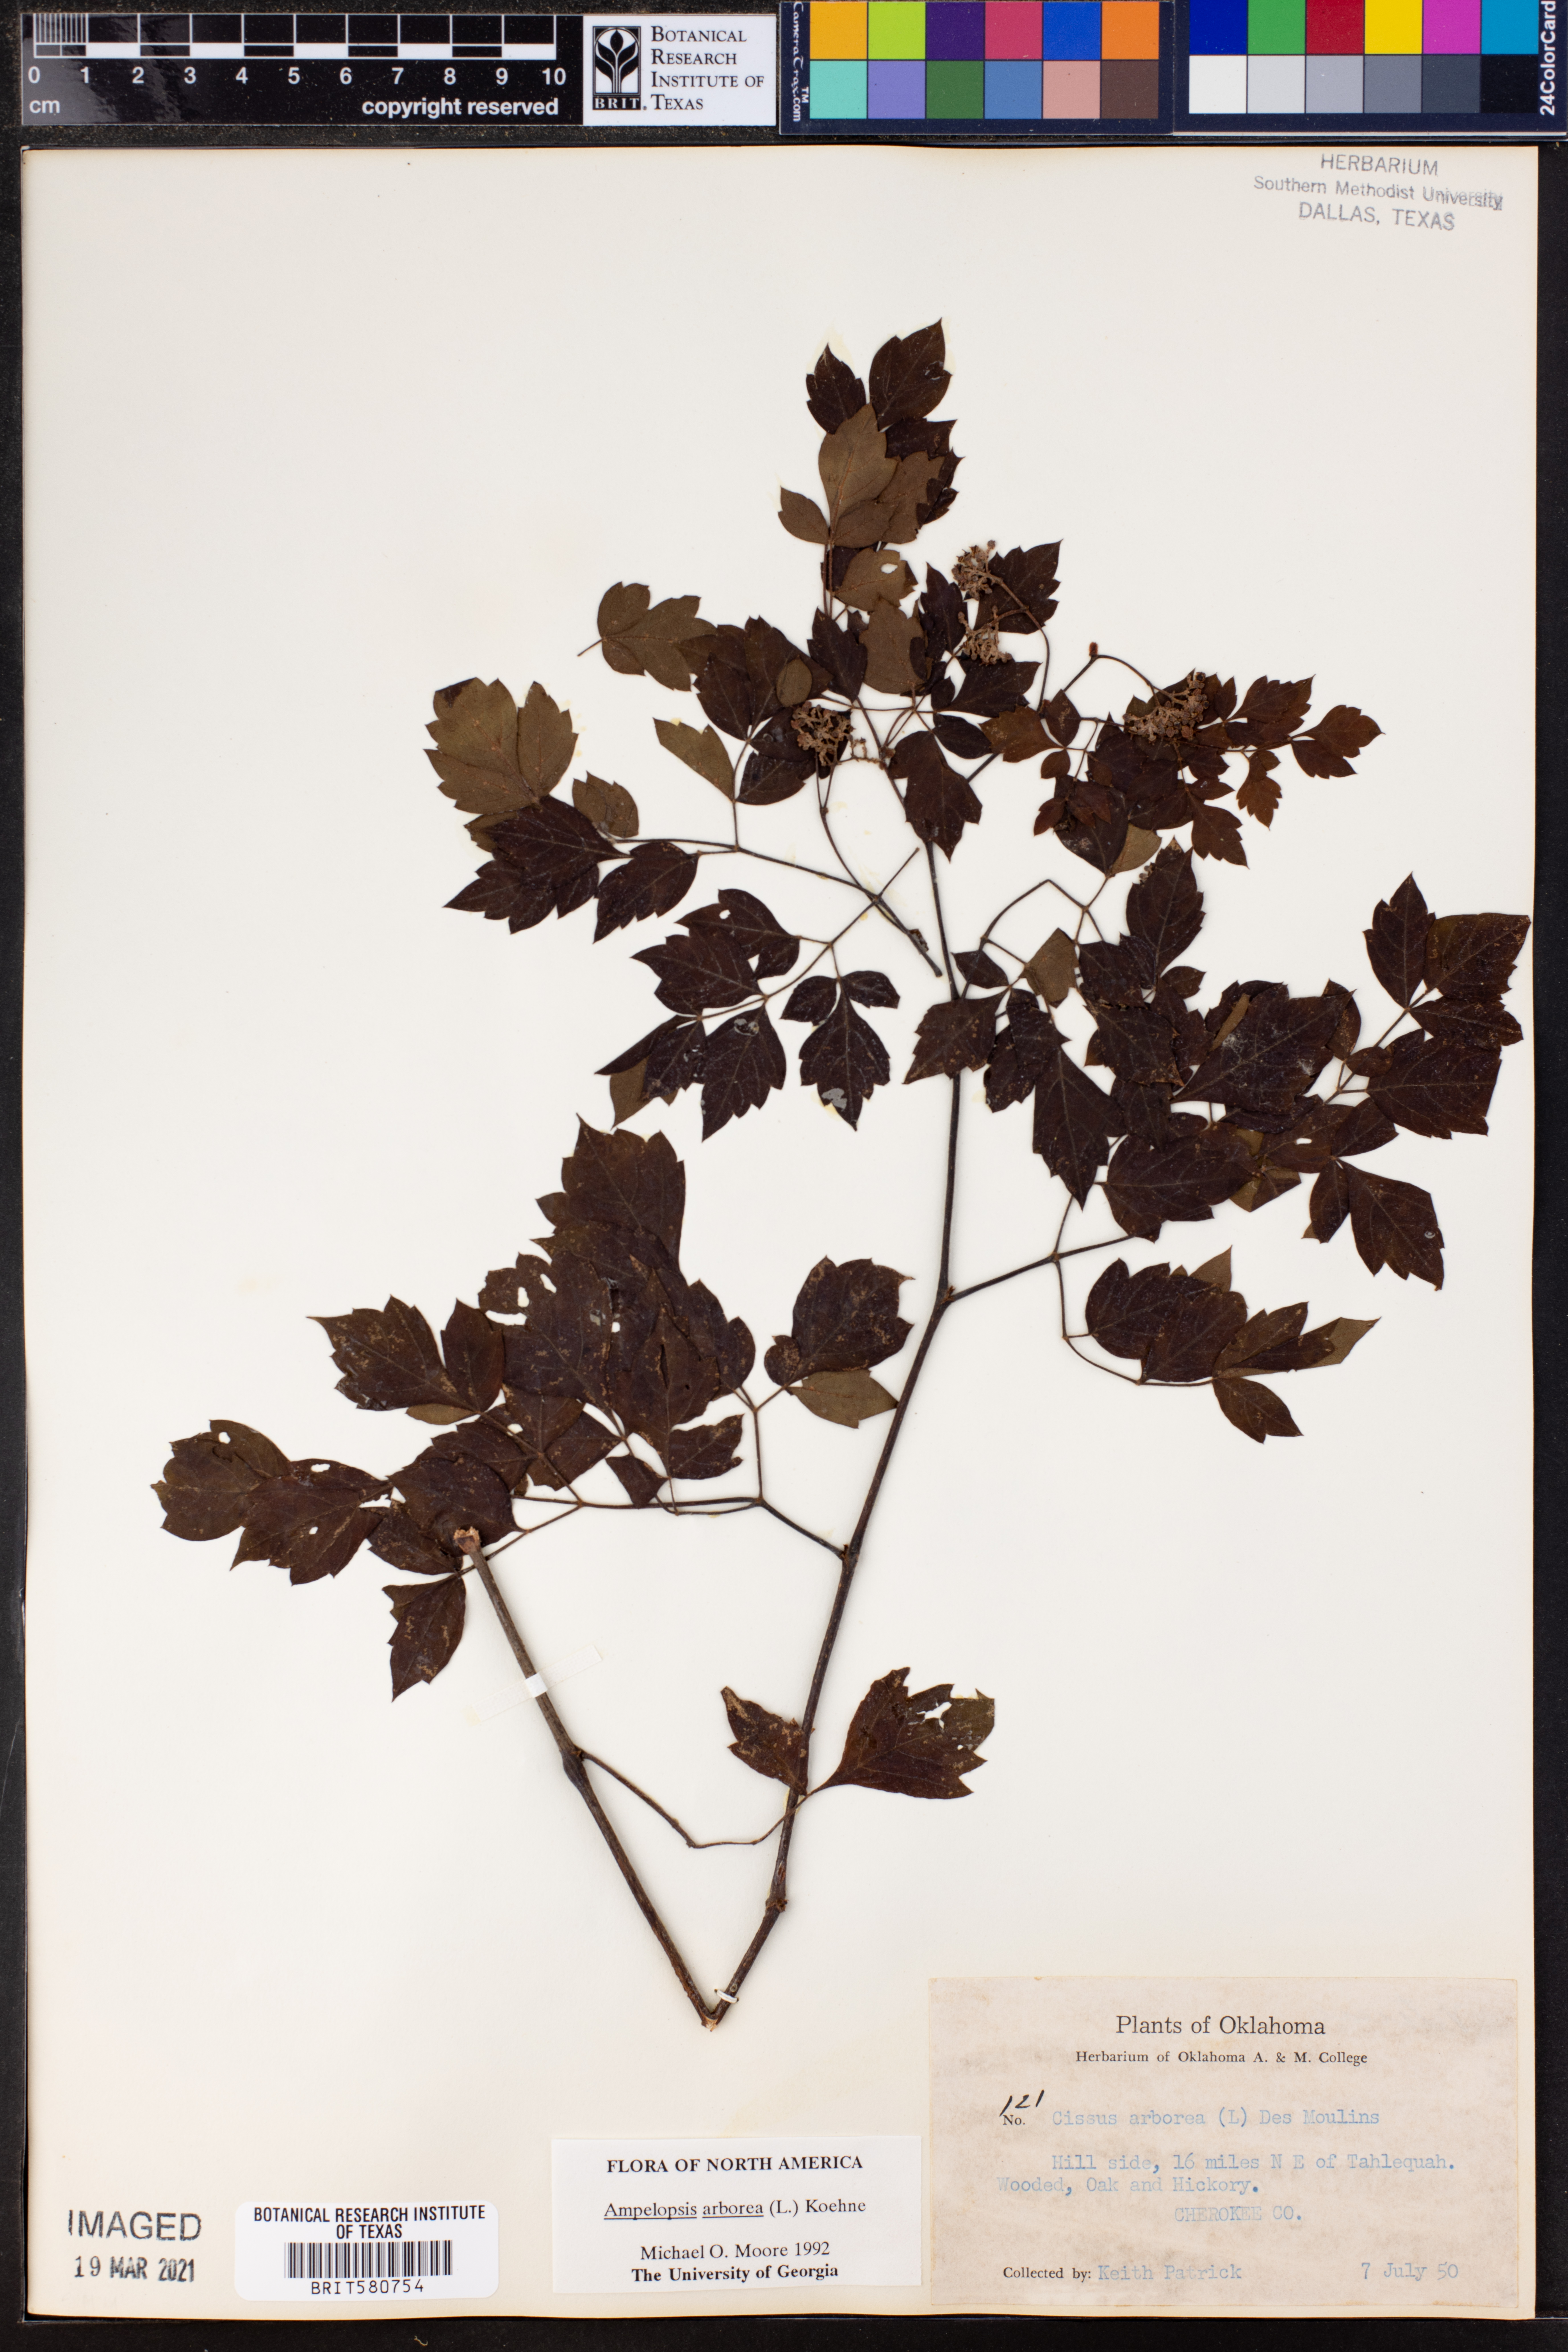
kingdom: Plantae
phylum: Tracheophyta
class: Magnoliopsida
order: Vitales
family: Vitaceae
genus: Nekemias
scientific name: Nekemias arborea
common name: Peppervine
